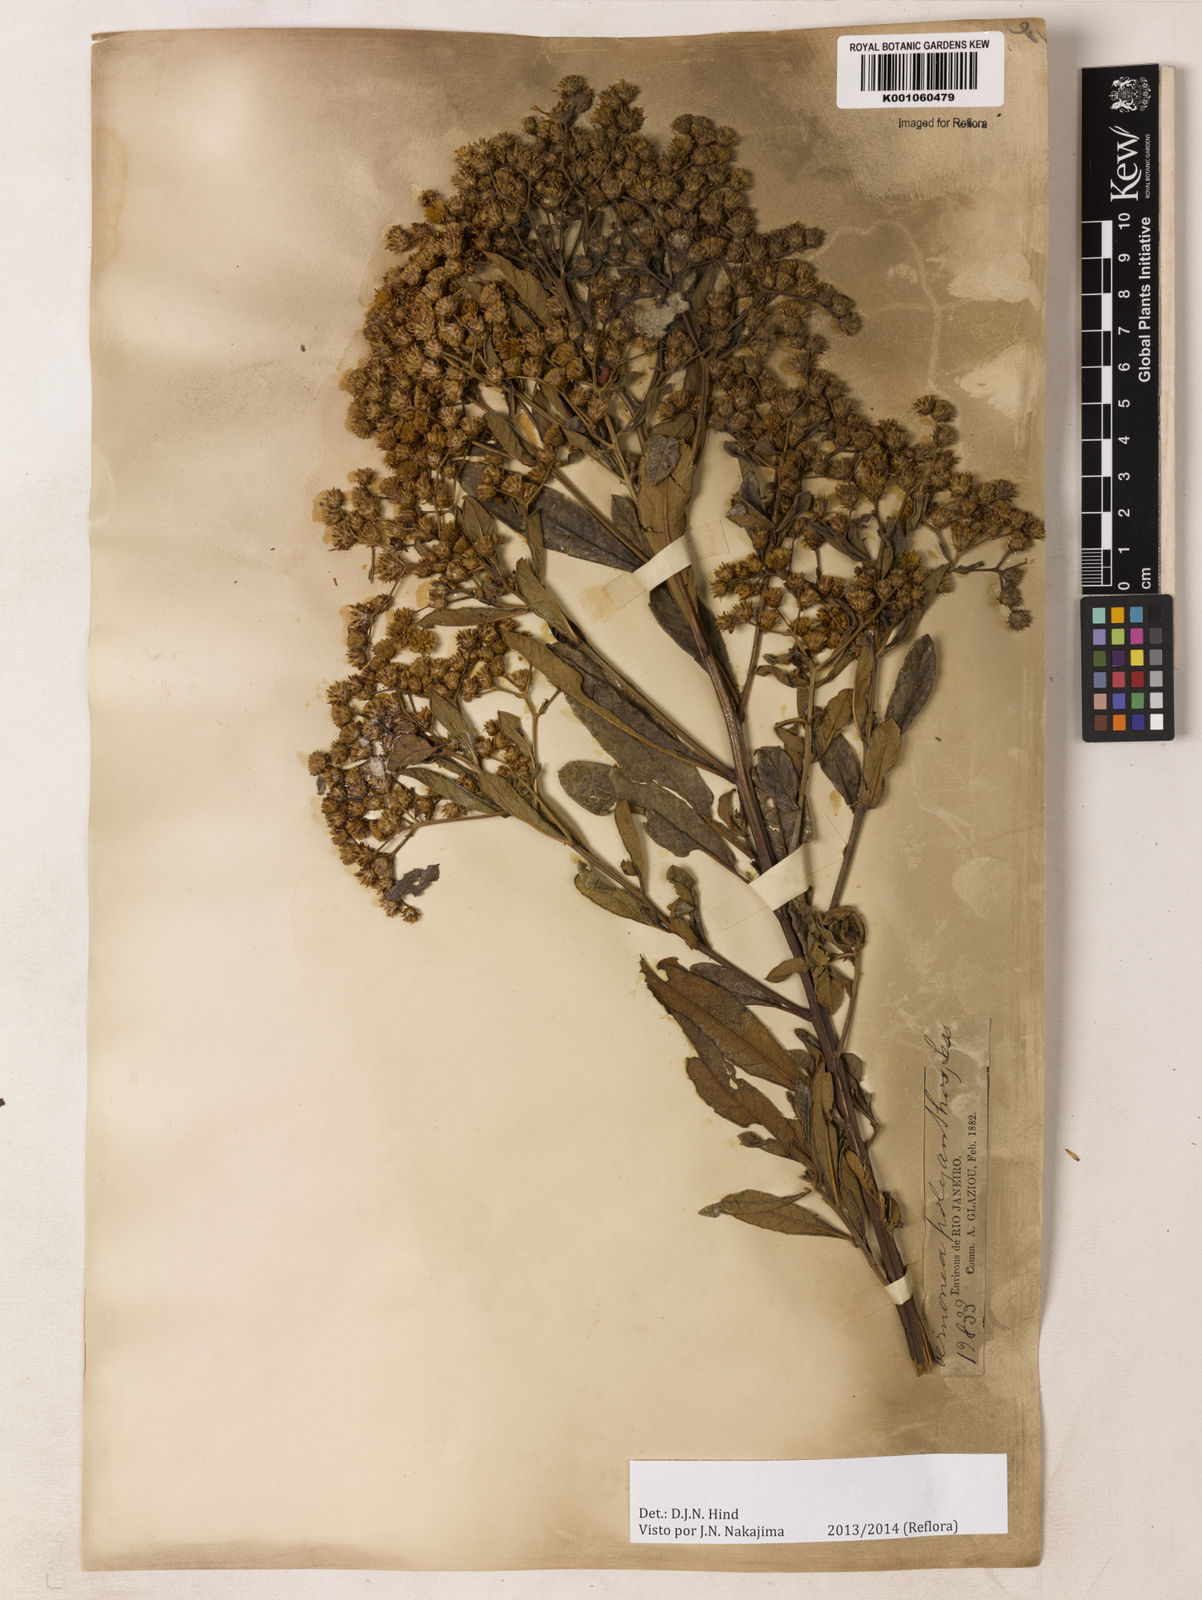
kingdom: Plantae
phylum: Tracheophyta
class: Magnoliopsida
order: Asterales
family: Asteraceae
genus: Vernonanthura
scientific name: Vernonanthura polyanthes
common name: Tree aster
